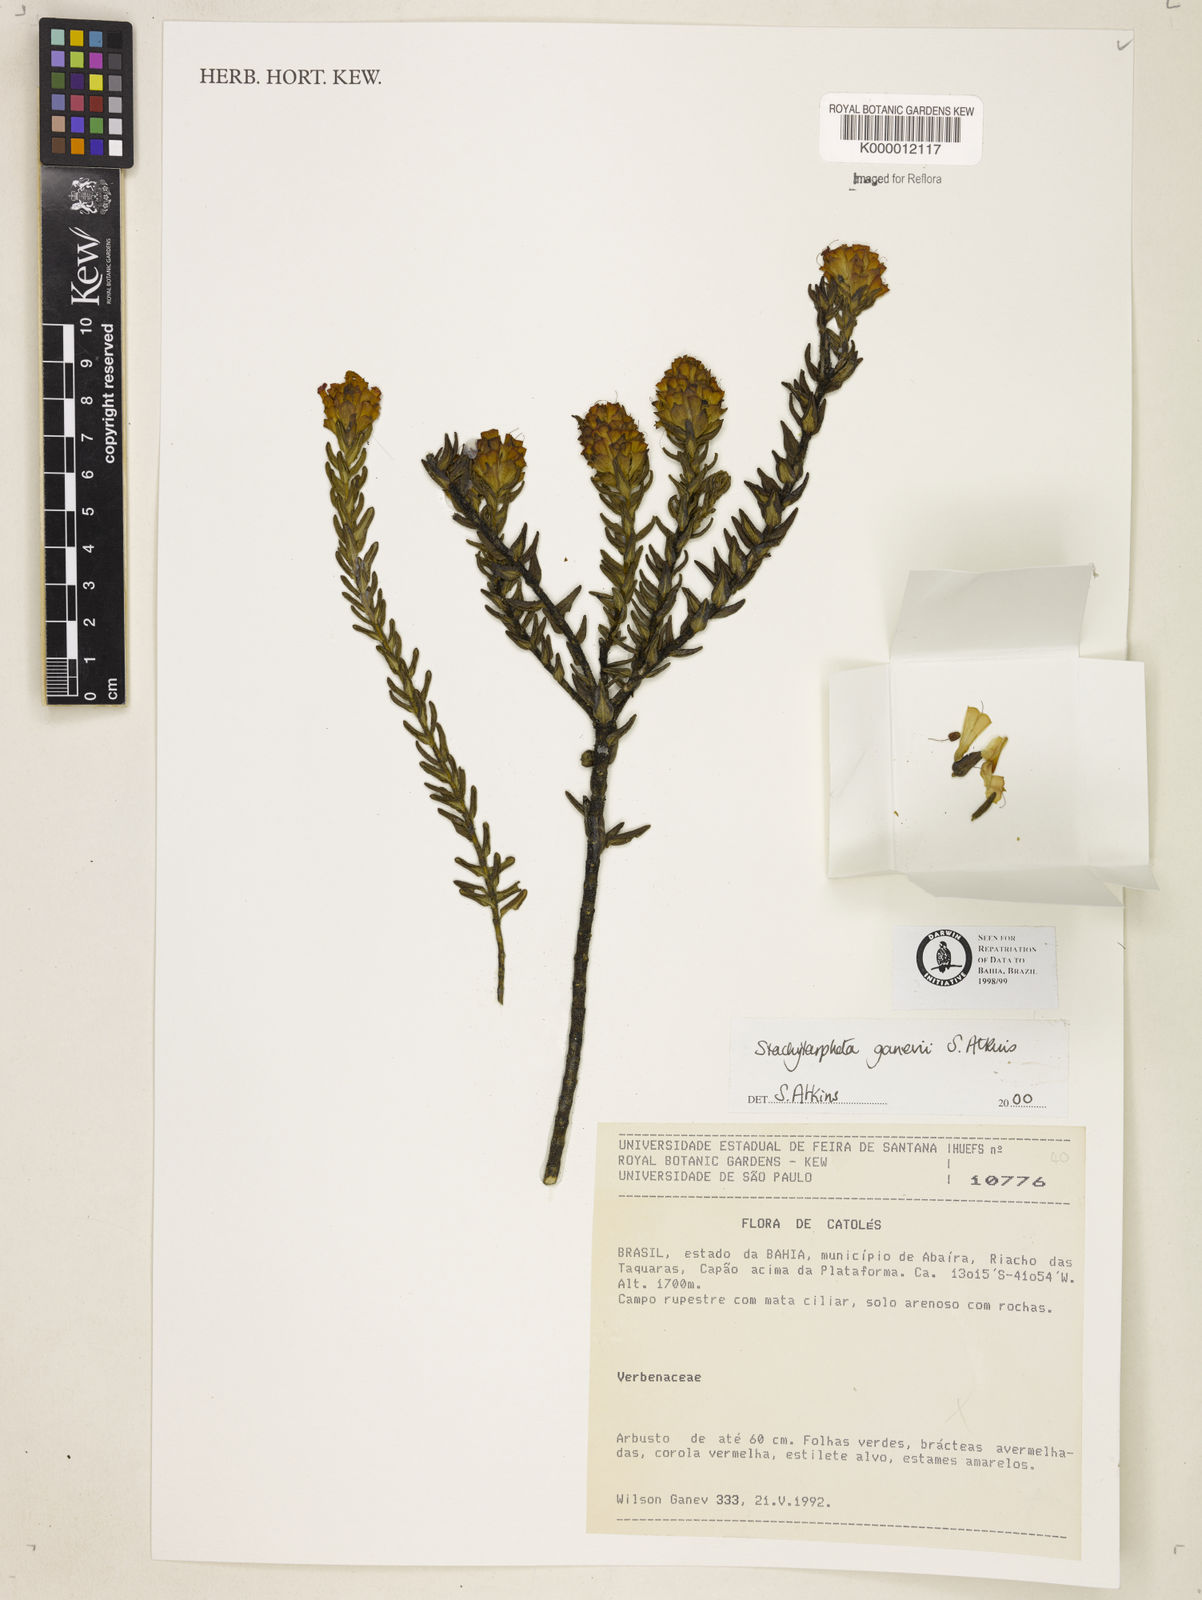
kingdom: Plantae
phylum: Tracheophyta
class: Magnoliopsida
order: Lamiales
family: Verbenaceae
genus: Stachytarpheta
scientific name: Stachytarpheta ganevii
